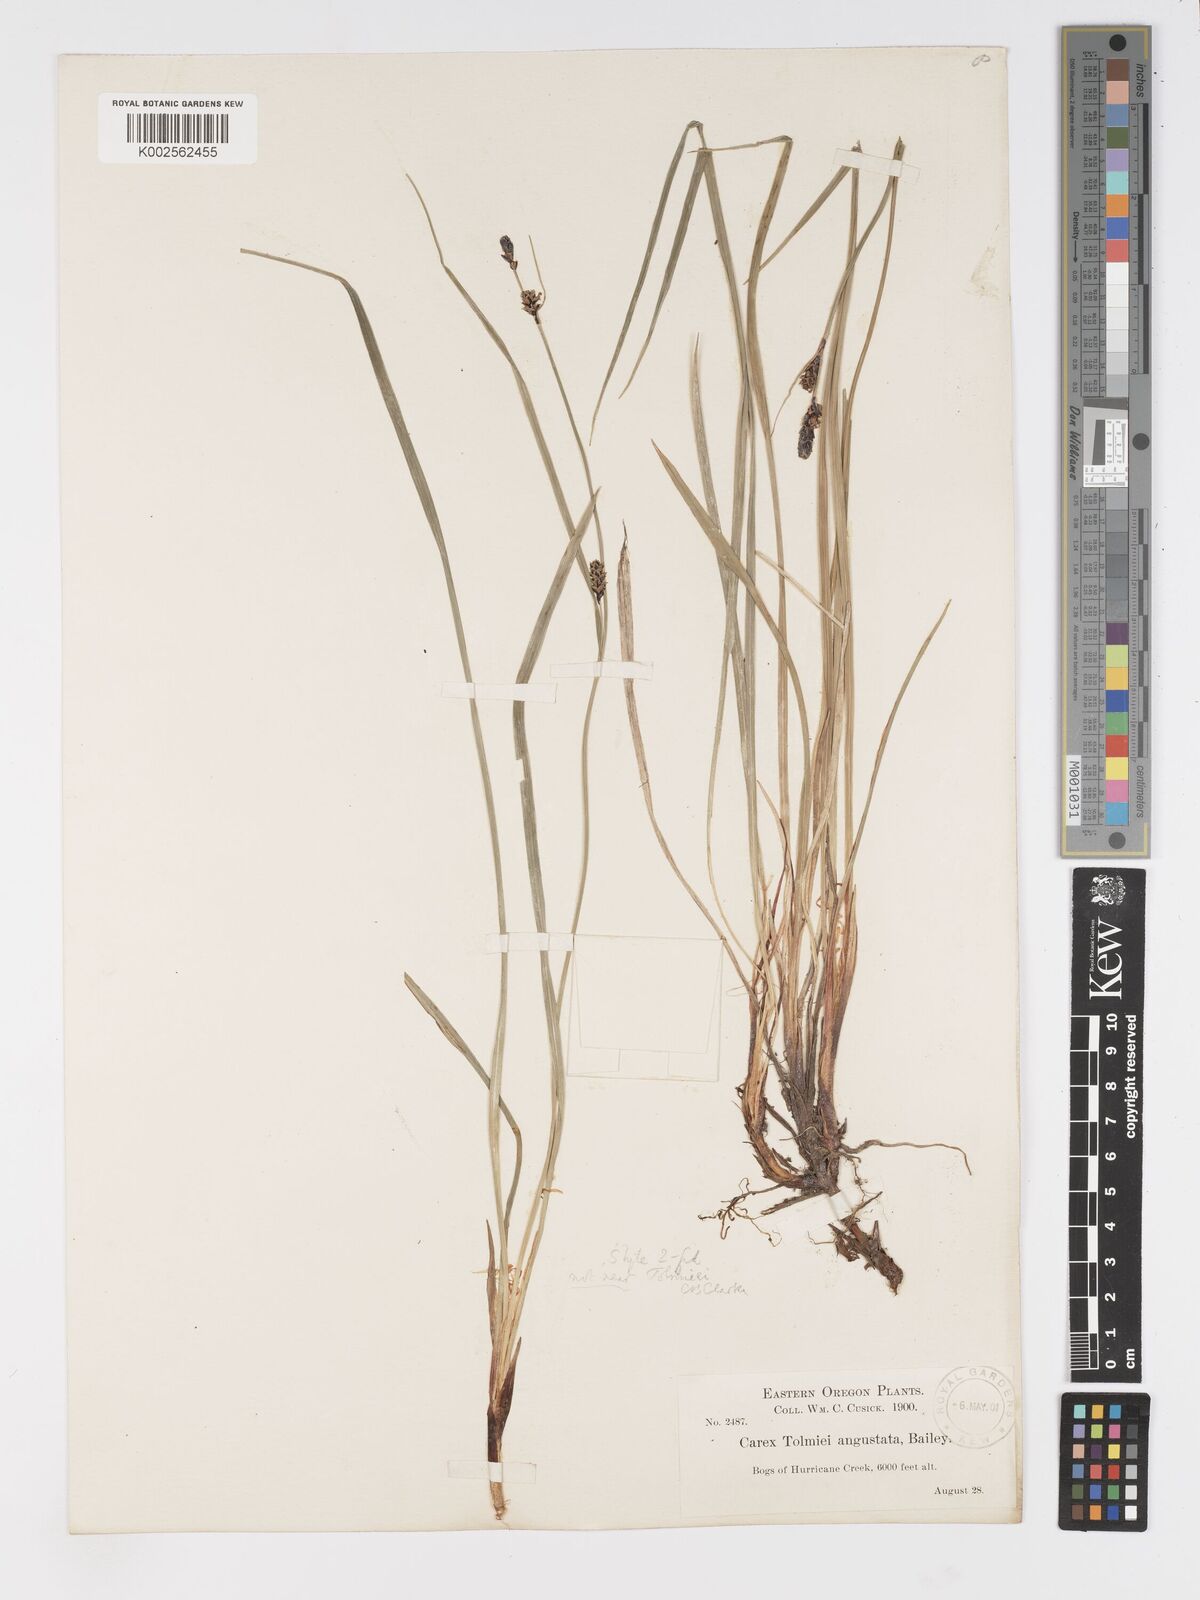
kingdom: Plantae
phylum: Tracheophyta
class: Liliopsida
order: Poales
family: Cyperaceae
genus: Carex
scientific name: Carex
